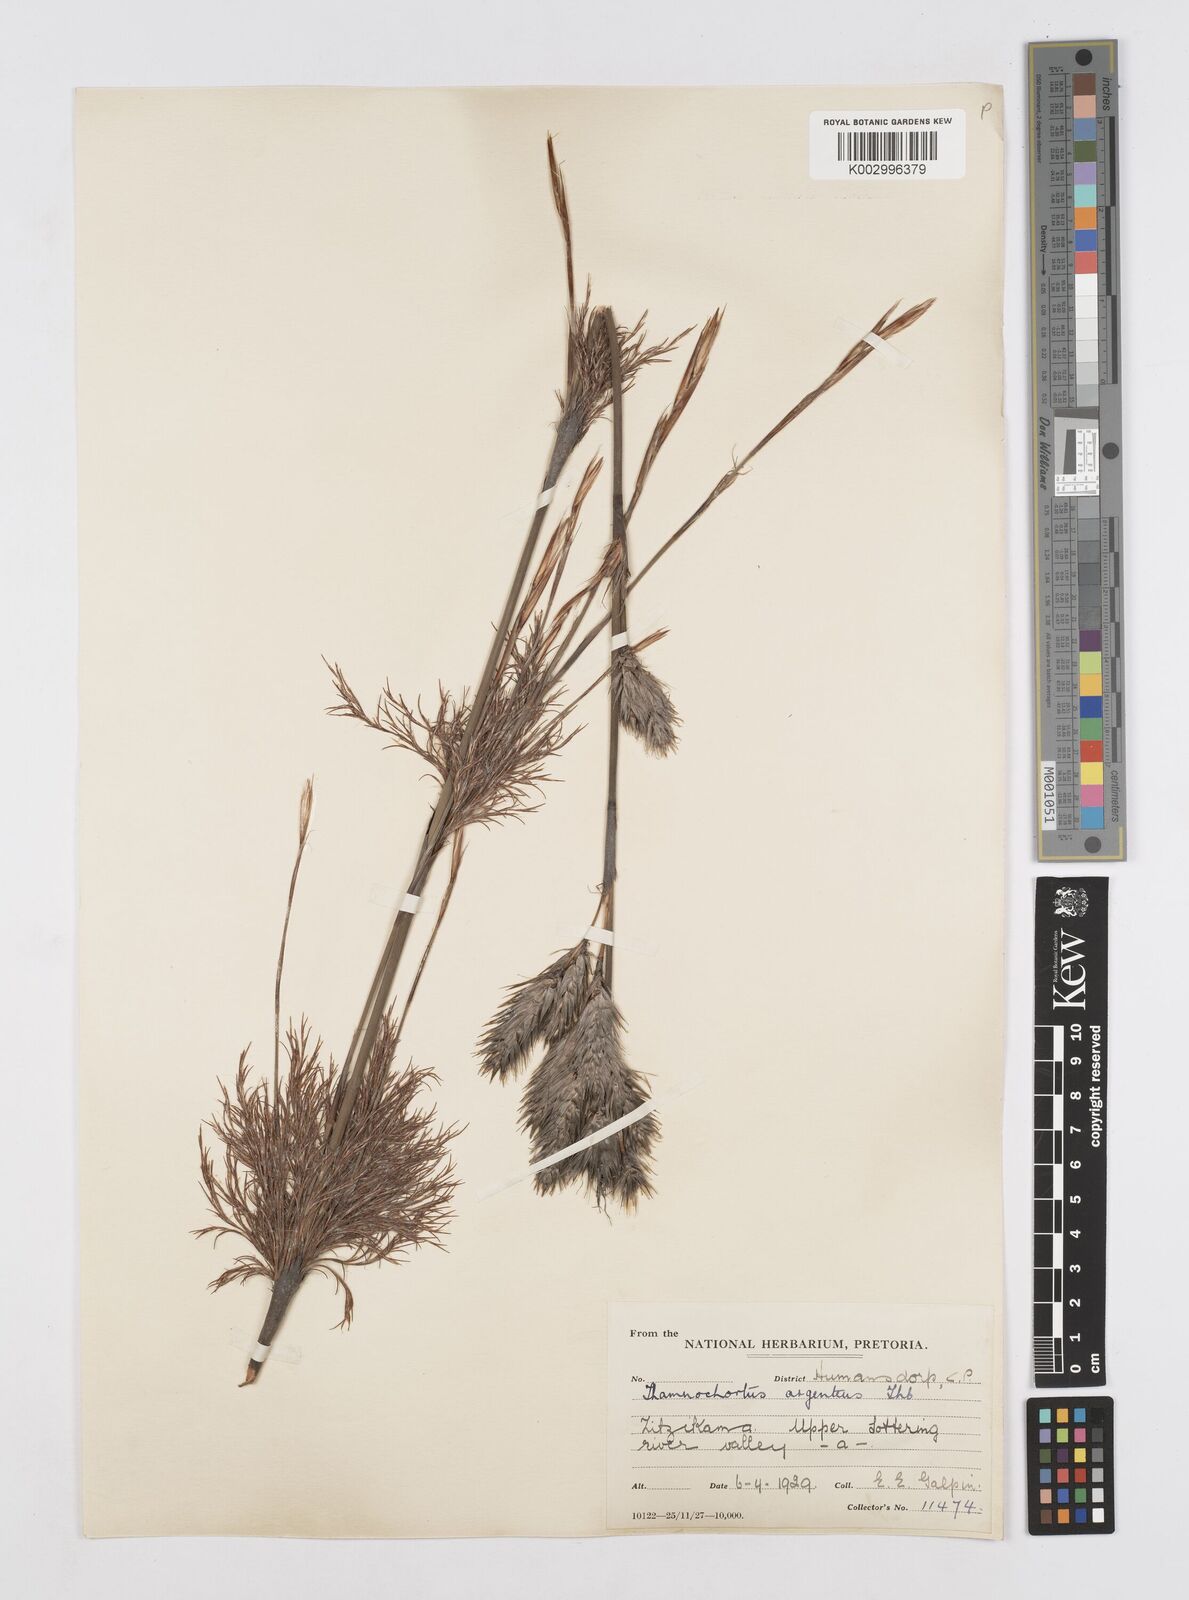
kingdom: Plantae
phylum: Tracheophyta
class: Liliopsida
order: Poales
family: Restionaceae
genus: Hypodiscus
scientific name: Hypodiscus argenteus
